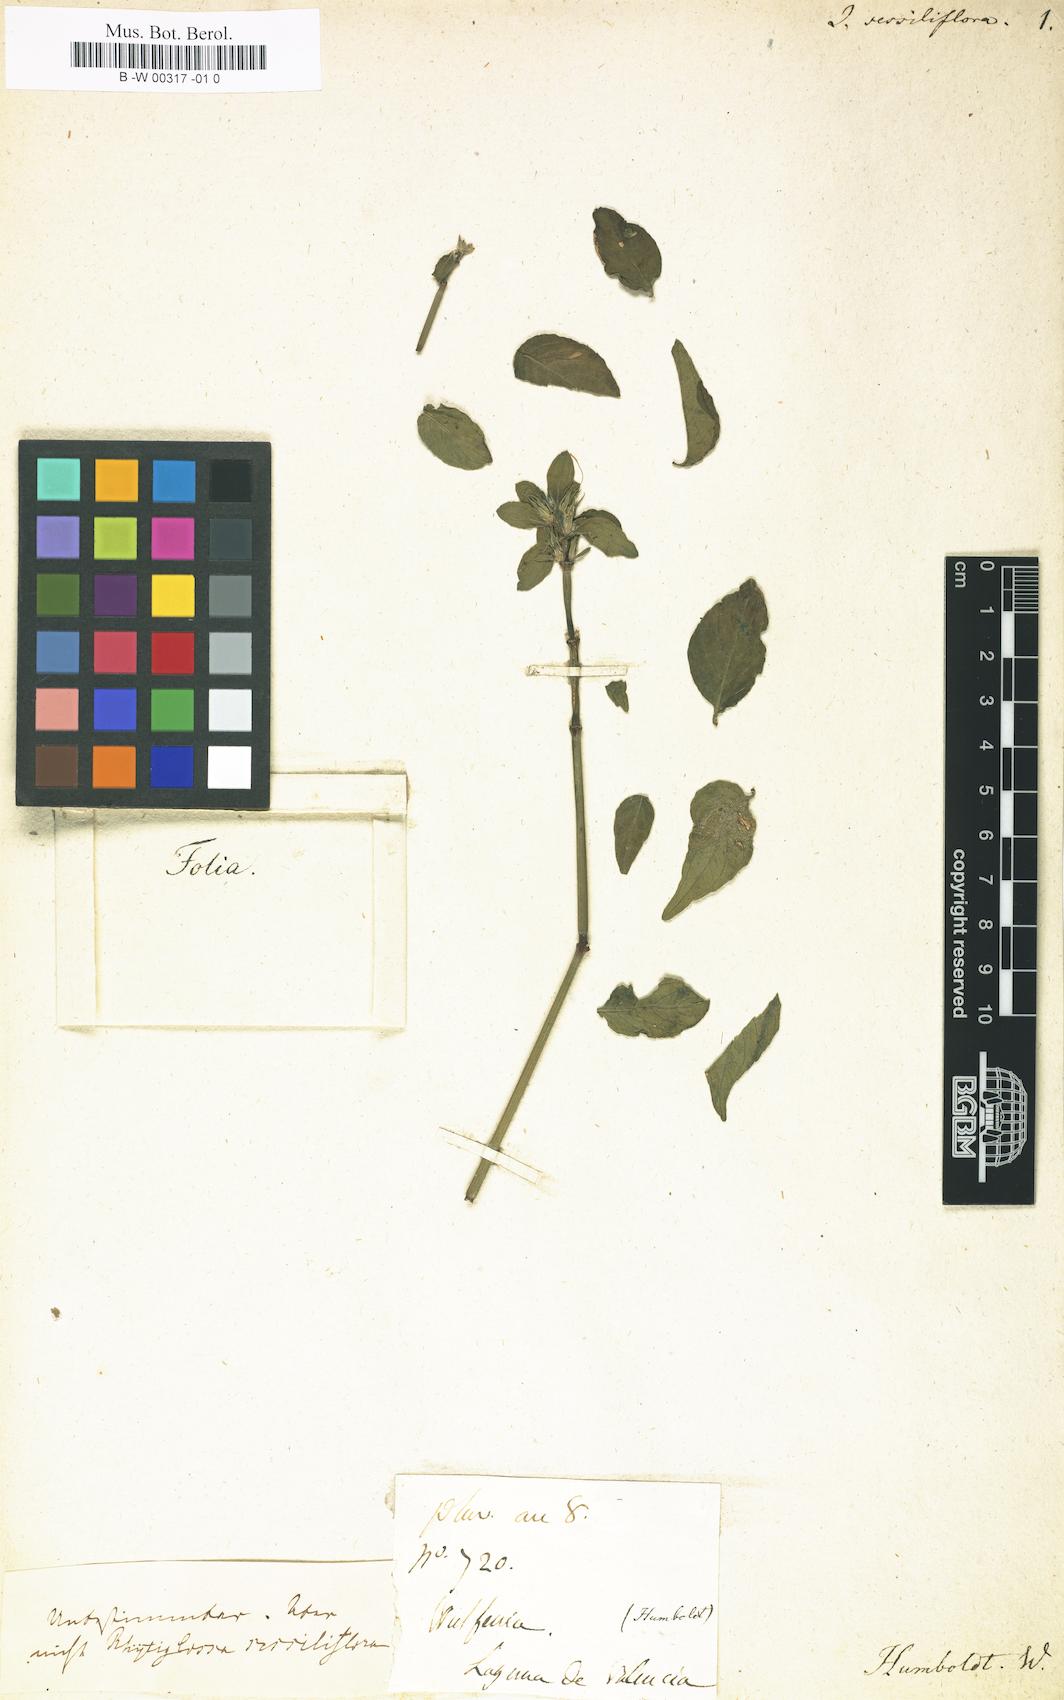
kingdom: Plantae
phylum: Tracheophyta
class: Magnoliopsida
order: Lamiales
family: Acanthaceae
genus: Justicia
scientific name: Justicia sessiliflora
